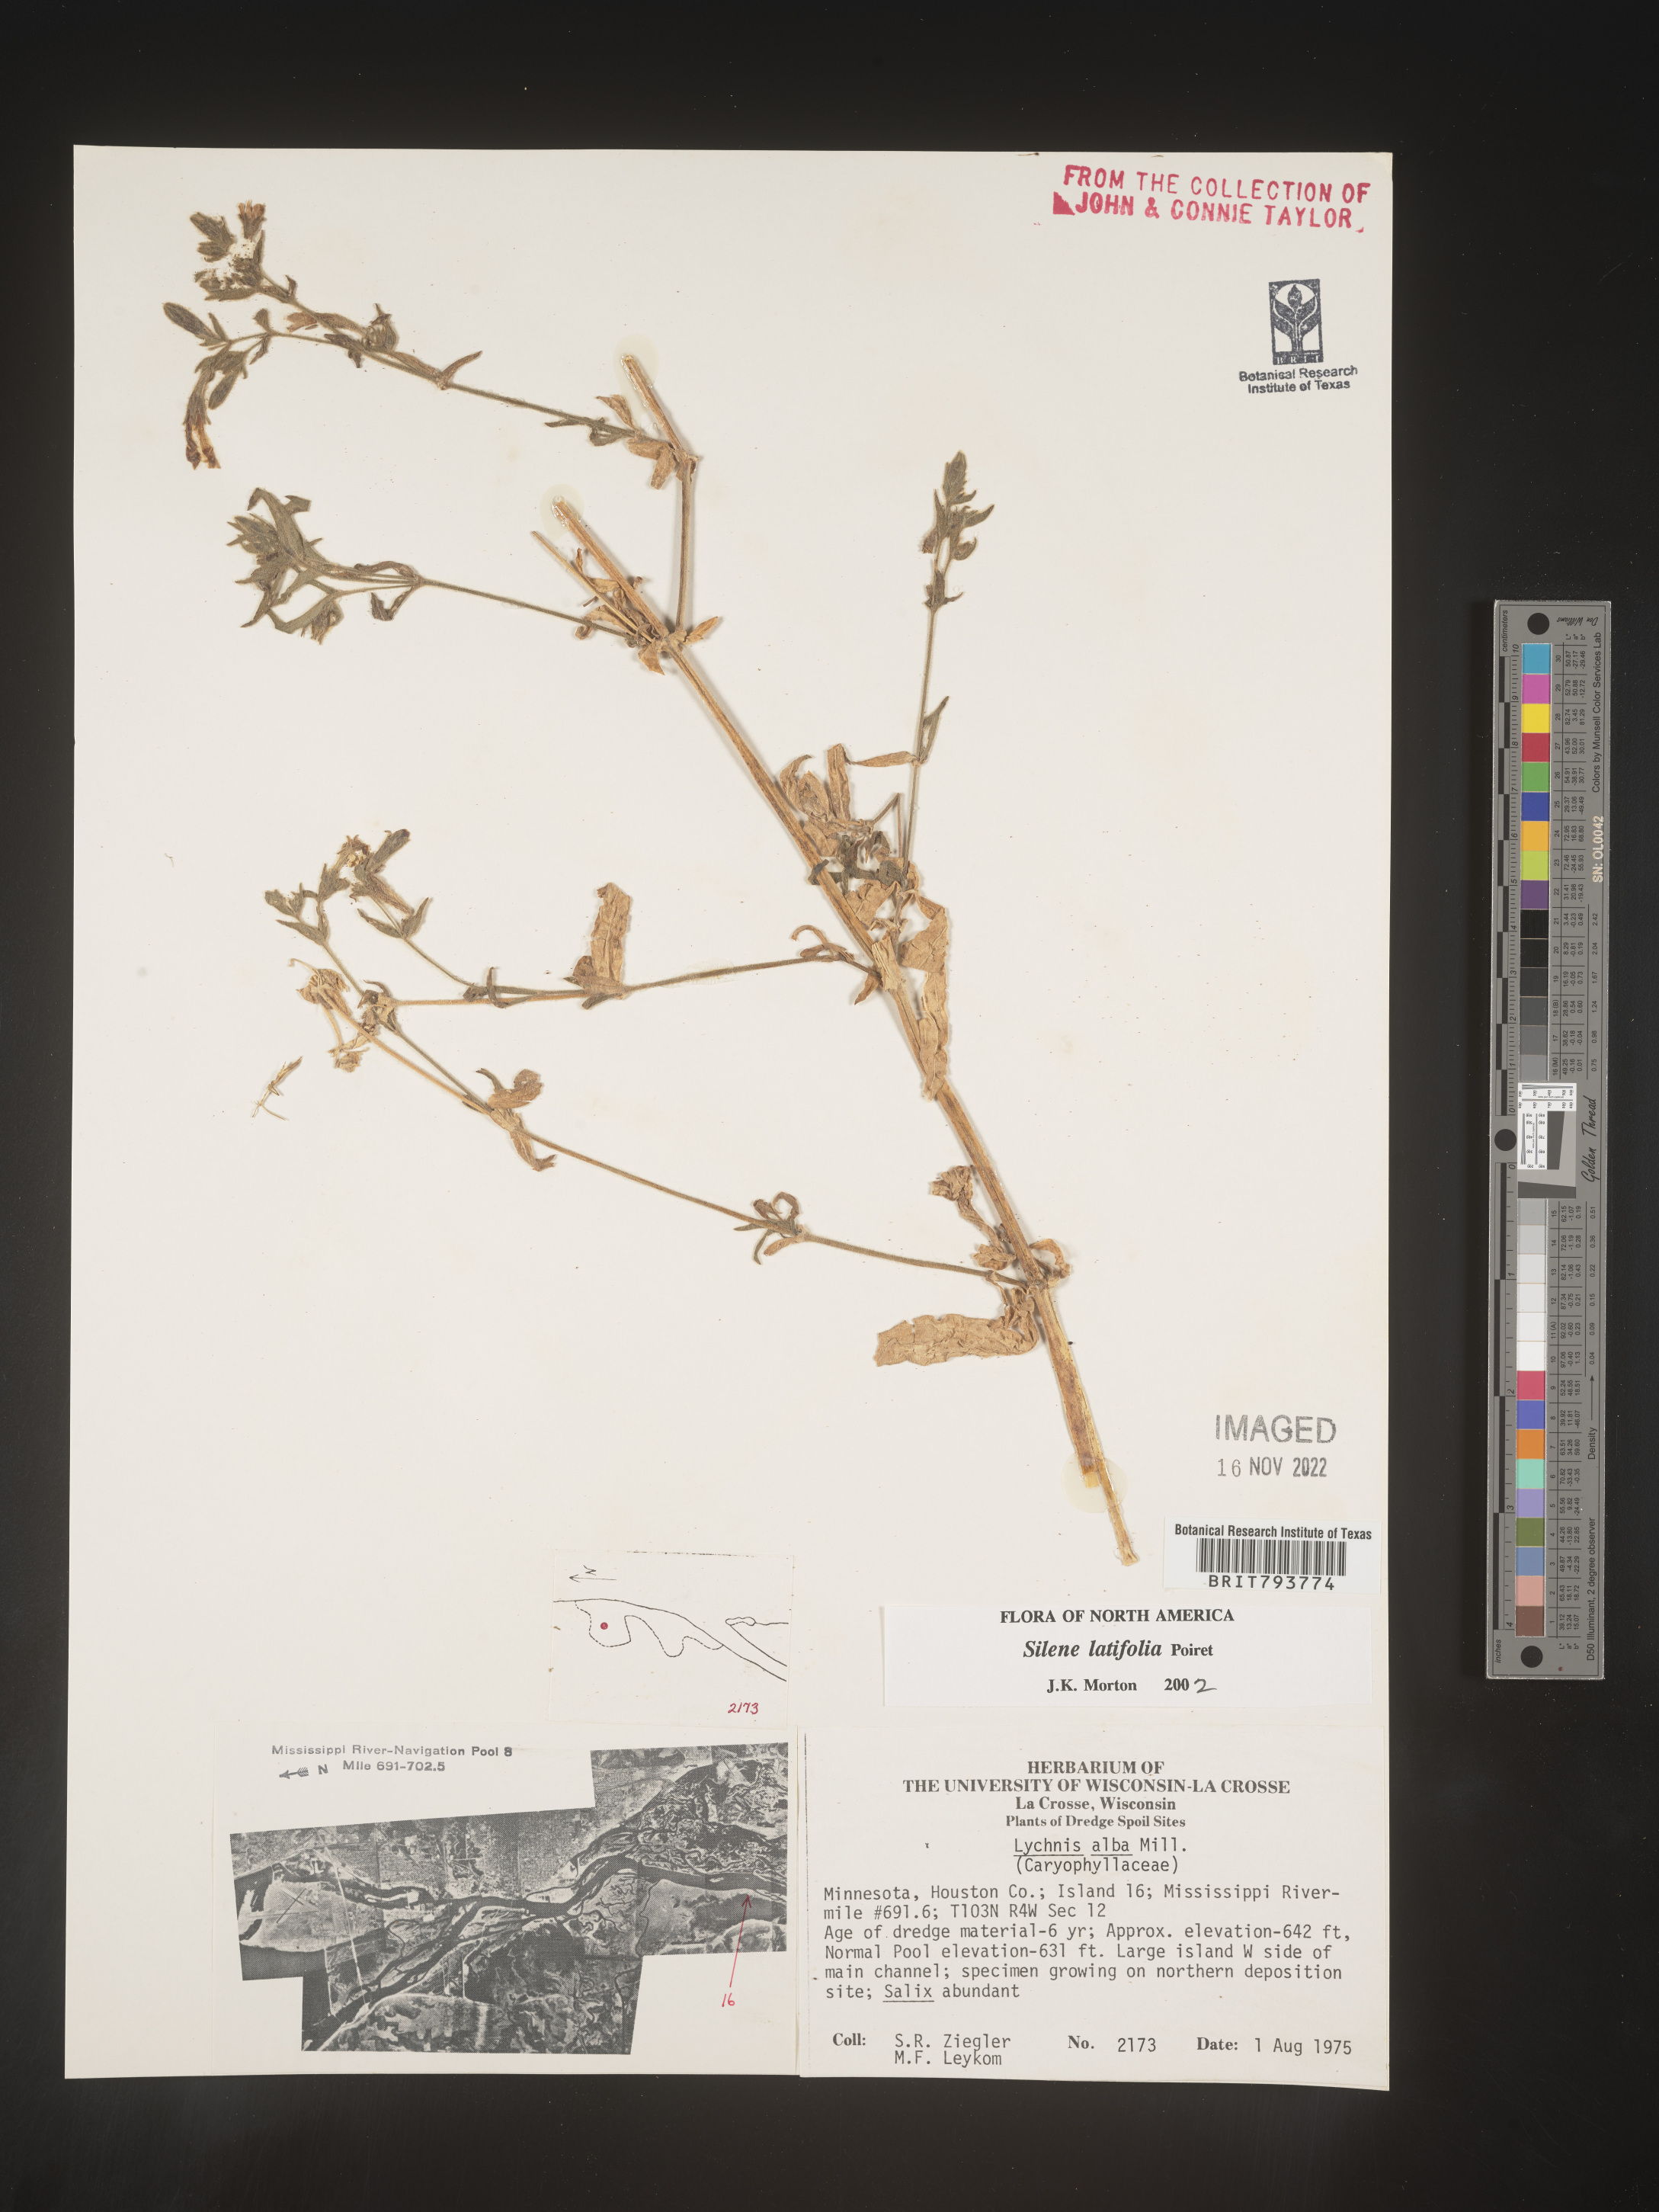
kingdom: Plantae
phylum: Tracheophyta
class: Magnoliopsida
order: Caryophyllales
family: Caryophyllaceae
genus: Silene
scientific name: Silene latifolia
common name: White campion
